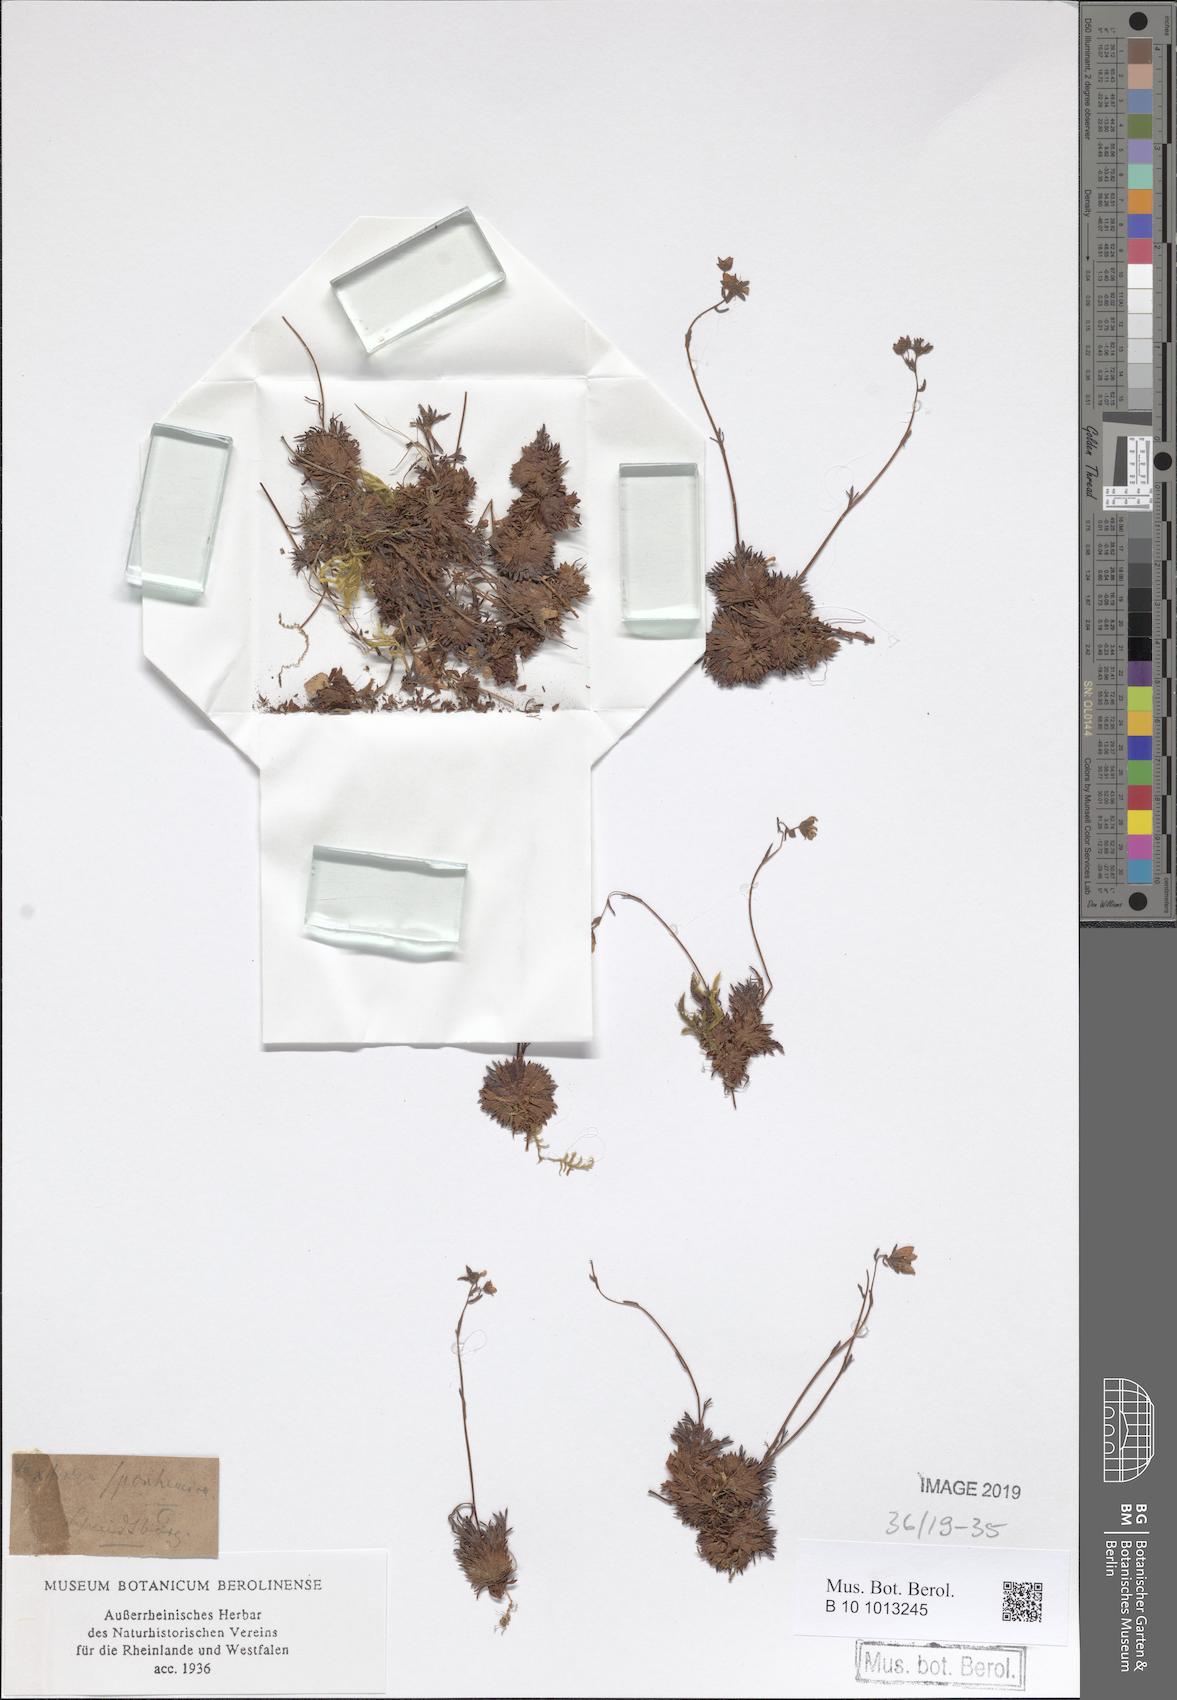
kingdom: Plantae
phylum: Tracheophyta
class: Magnoliopsida
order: Saxifragales
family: Saxifragaceae
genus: Saxifraga
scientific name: Saxifraga rosacea
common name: Irish saxifrage
